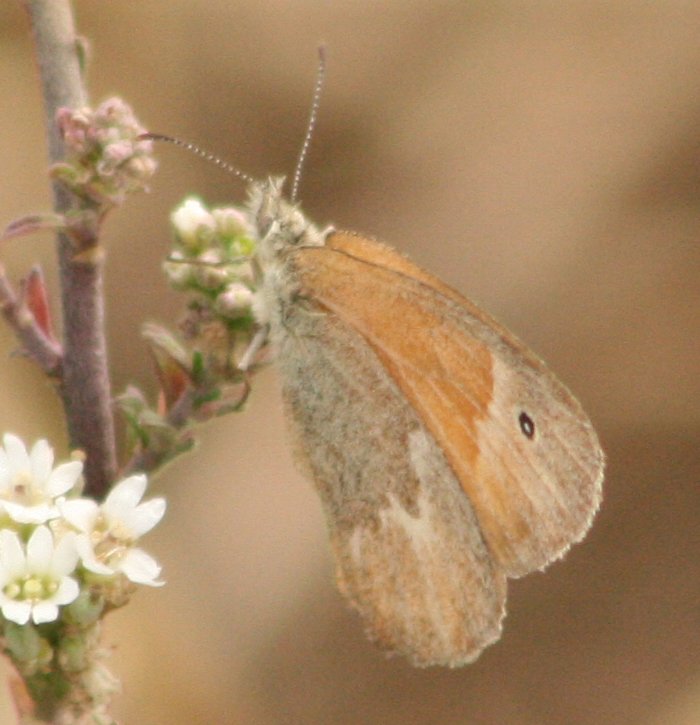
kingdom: Animalia
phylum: Arthropoda
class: Insecta
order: Lepidoptera
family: Nymphalidae
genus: Coenonympha
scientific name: Coenonympha tullia
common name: Large Heath
